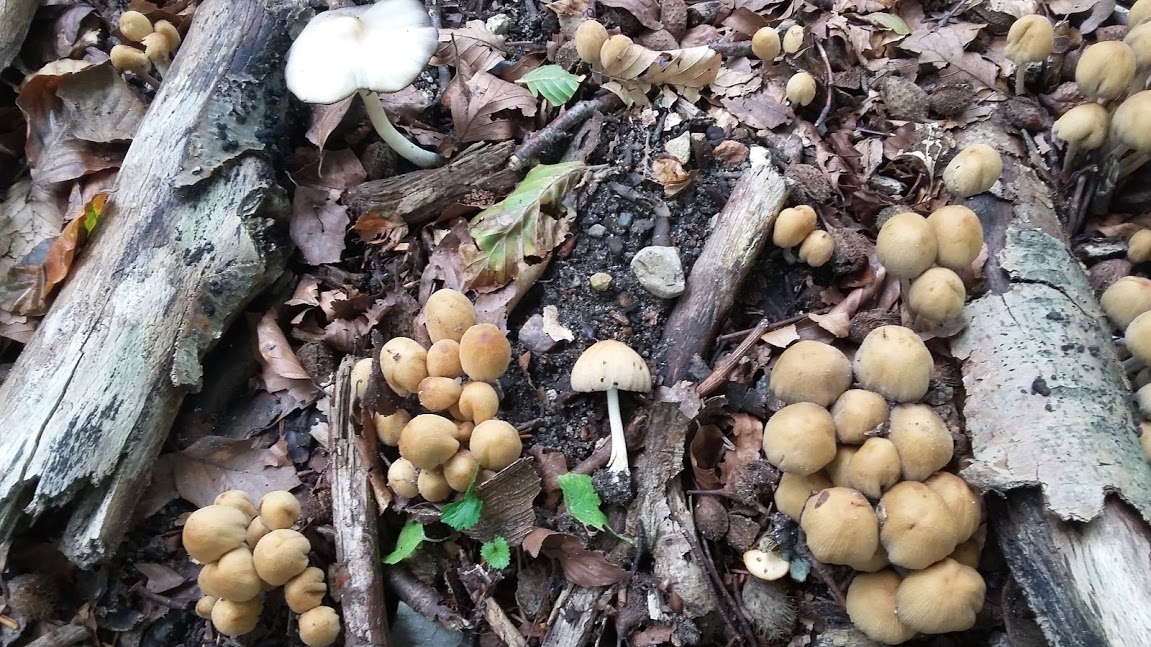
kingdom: Fungi
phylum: Basidiomycota
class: Agaricomycetes
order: Agaricales
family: Psathyrellaceae
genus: Coprinellus
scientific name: Coprinellus
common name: blækhat
